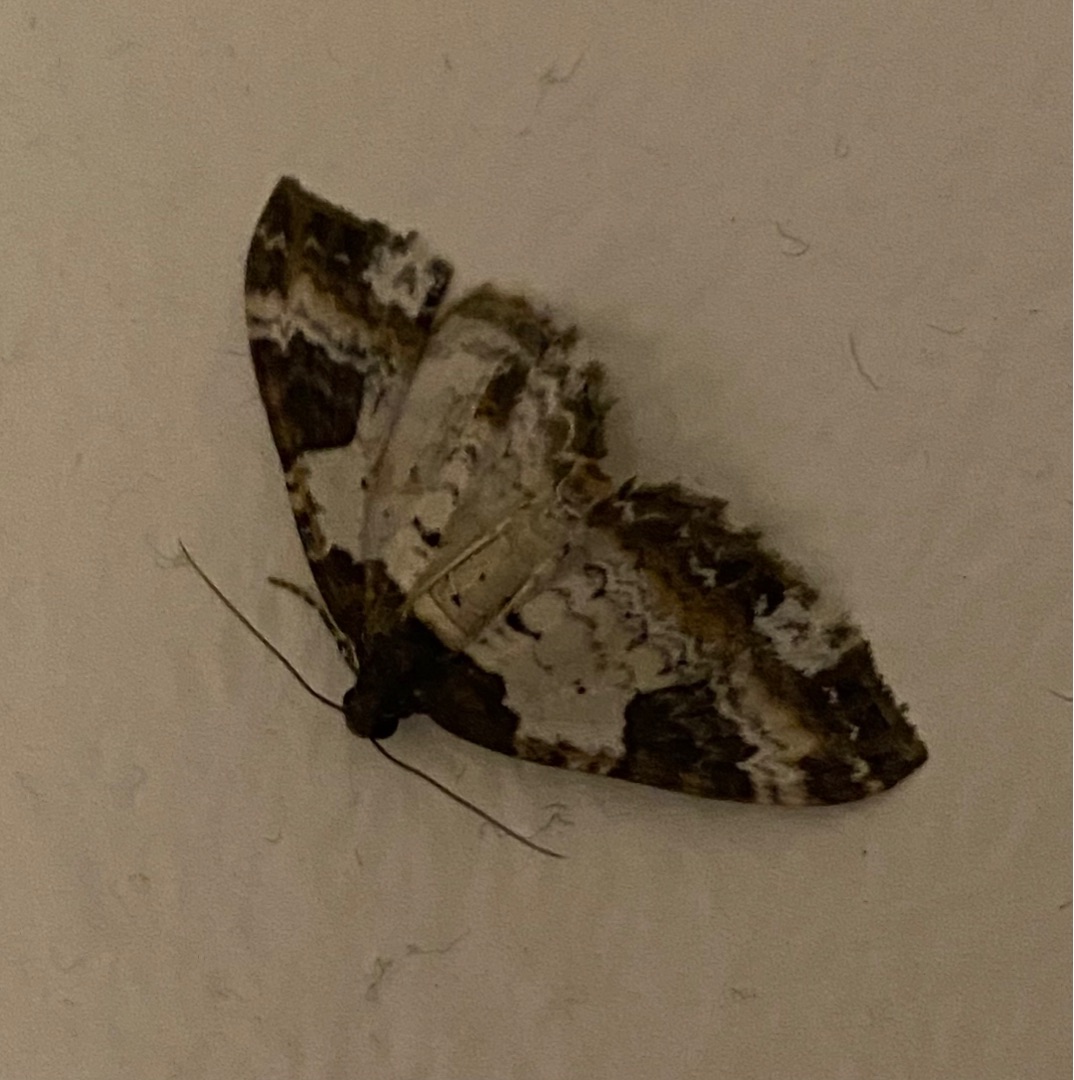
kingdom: Animalia
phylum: Arthropoda
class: Insecta
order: Lepidoptera
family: Geometridae
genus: Melanthia
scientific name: Melanthia procellata
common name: Klematismåler
